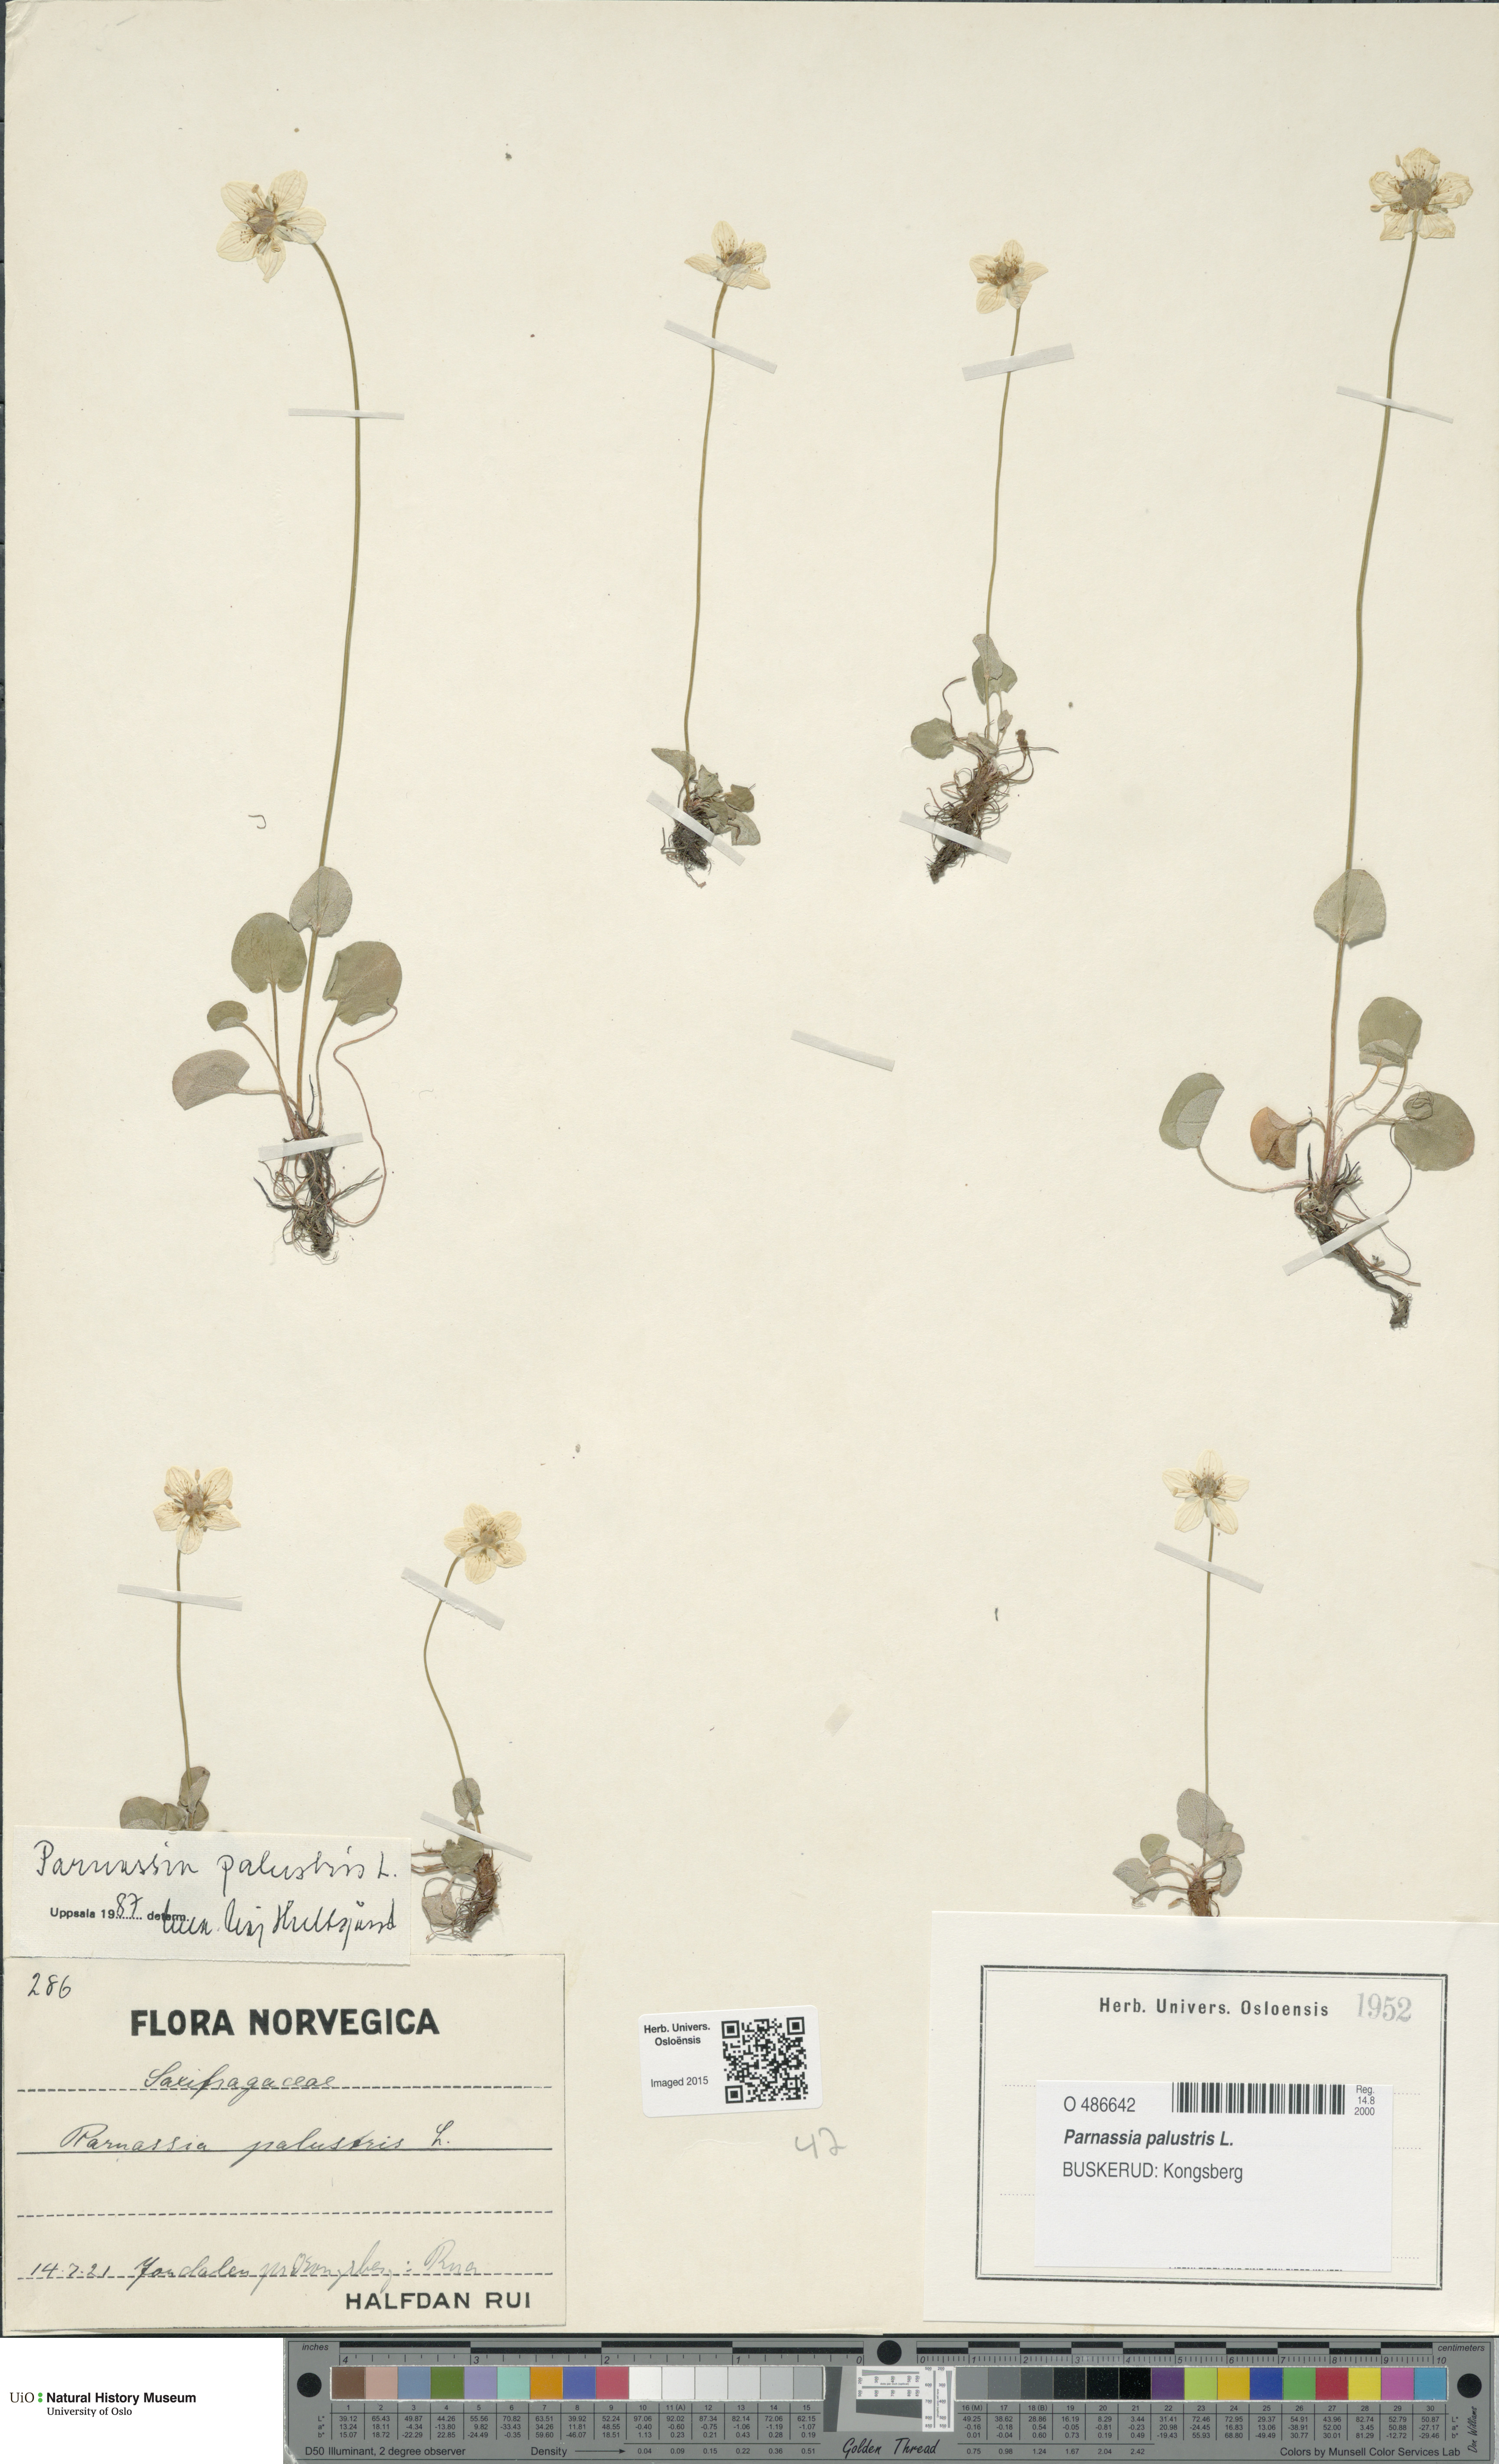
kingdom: Plantae
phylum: Tracheophyta
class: Magnoliopsida
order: Celastrales
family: Parnassiaceae
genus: Parnassia
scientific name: Parnassia palustris
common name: Grass-of-parnassus
